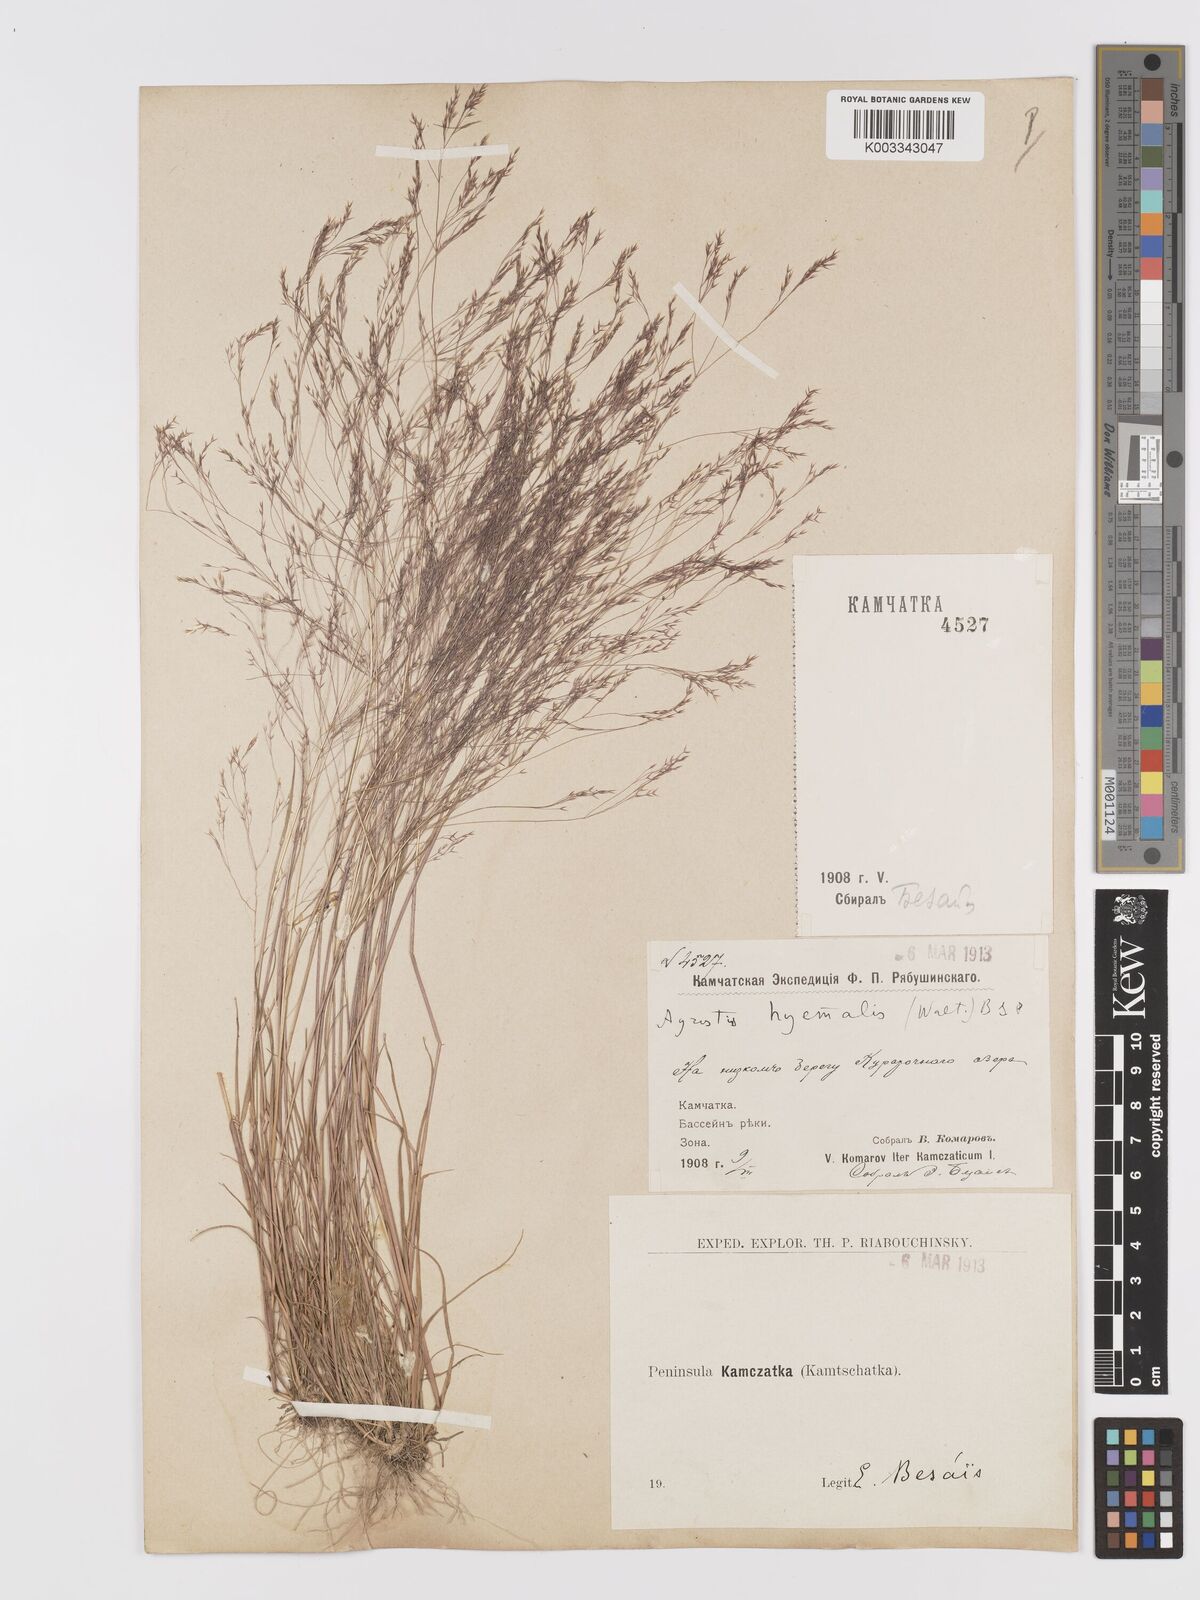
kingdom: Plantae
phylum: Tracheophyta
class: Liliopsida
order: Poales
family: Poaceae
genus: Agrostis
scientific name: Agrostis scabra
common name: Rough bent
